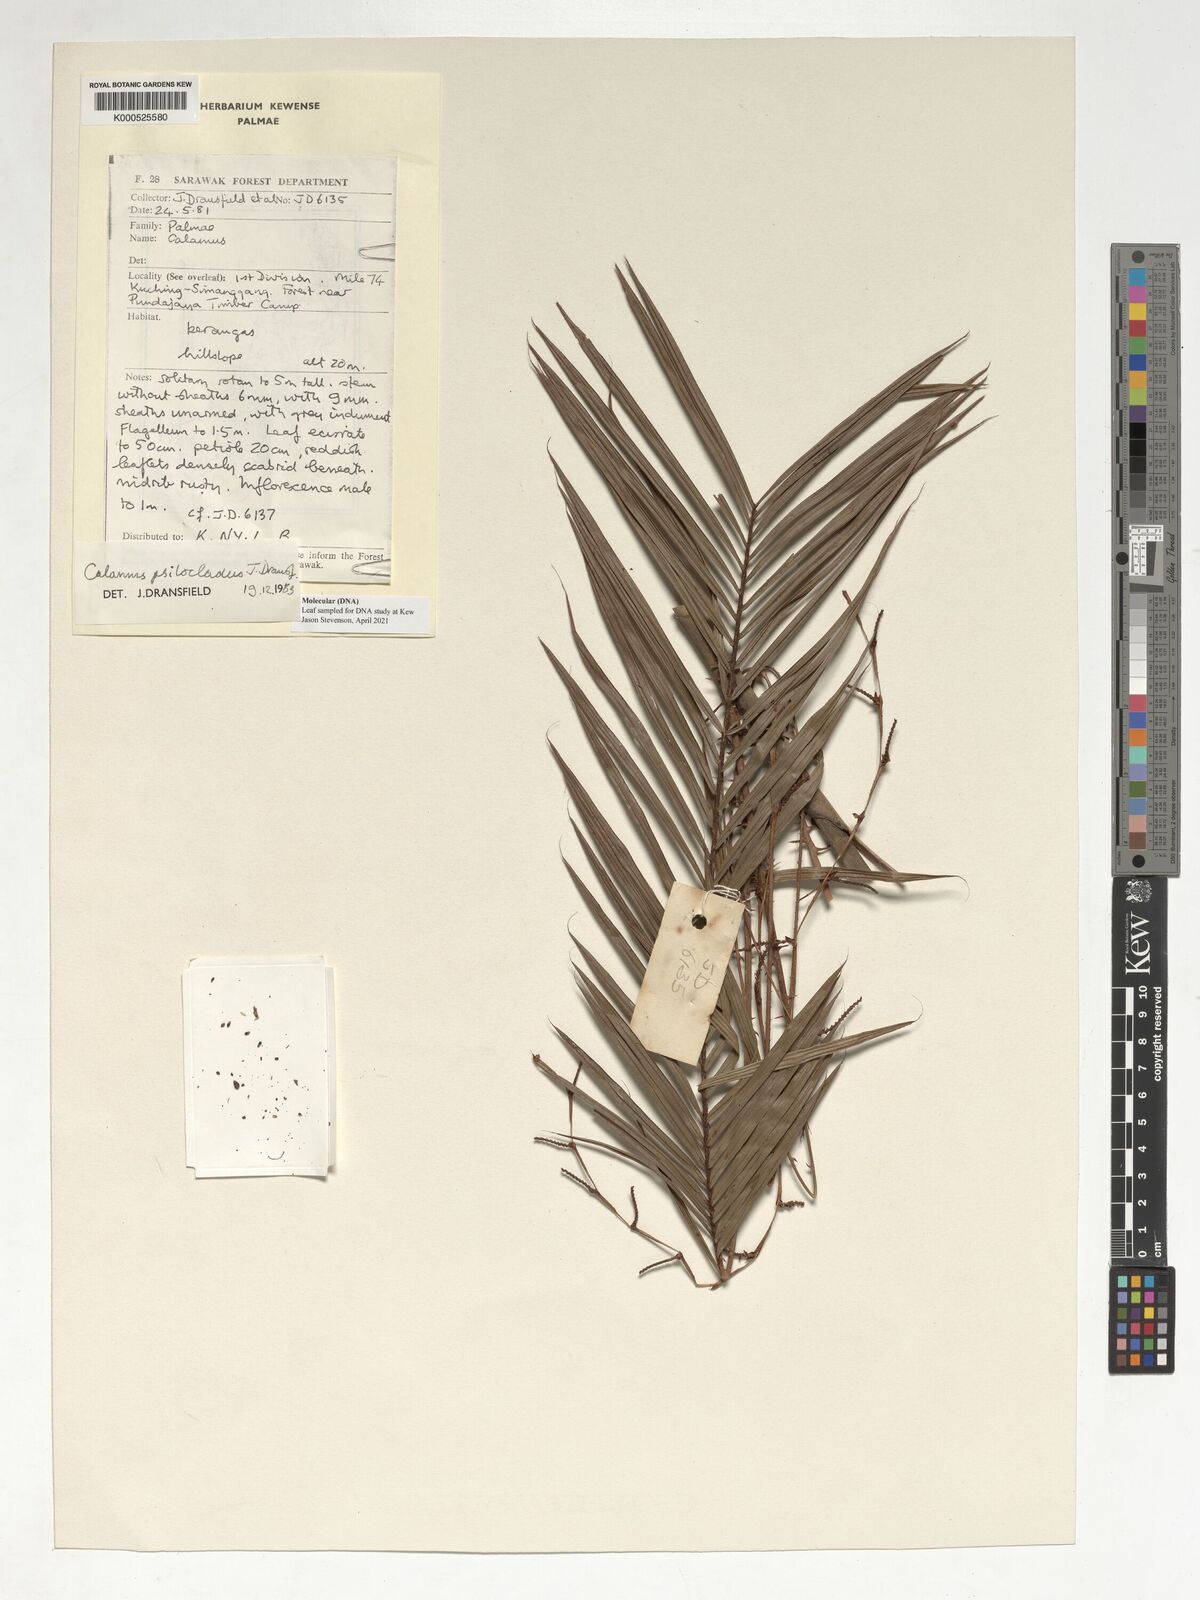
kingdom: Plantae
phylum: Tracheophyta
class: Liliopsida
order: Arecales
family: Arecaceae
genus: Calamus
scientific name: Calamus psilocladus
